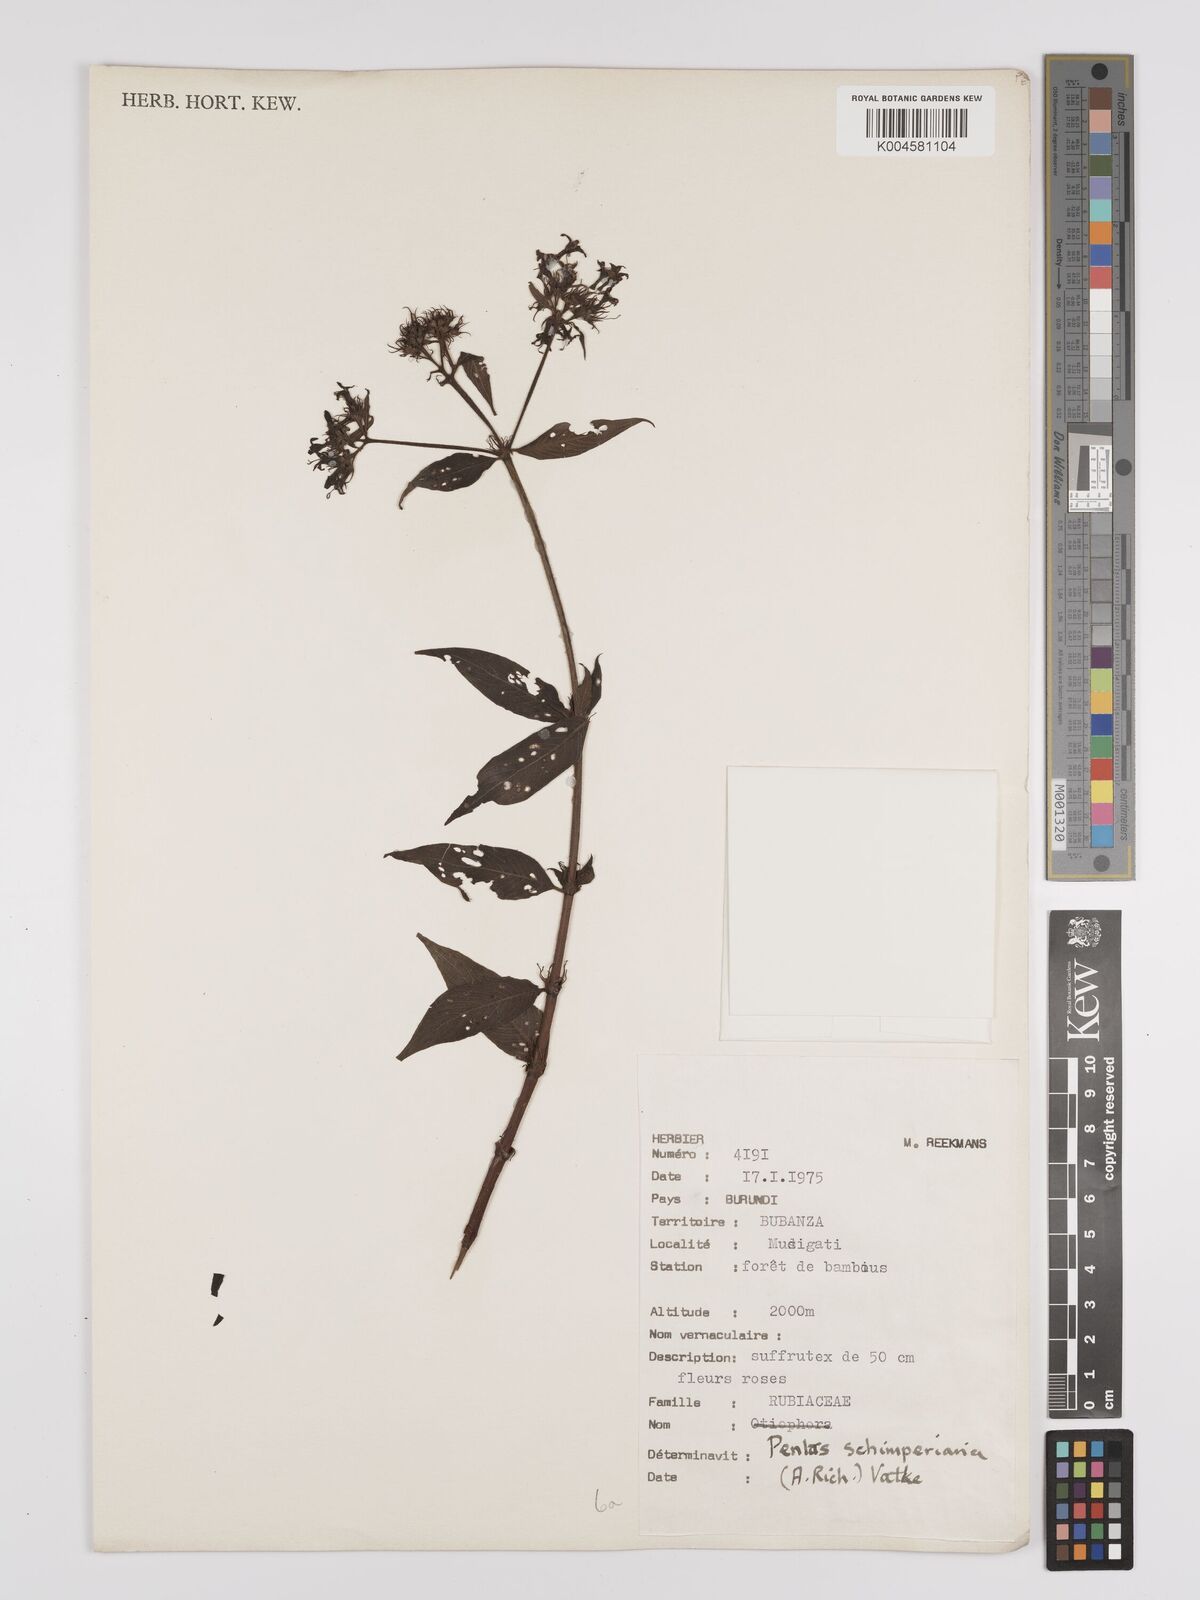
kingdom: Plantae
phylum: Tracheophyta
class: Magnoliopsida
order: Gentianales
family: Rubiaceae
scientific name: Rubiaceae
